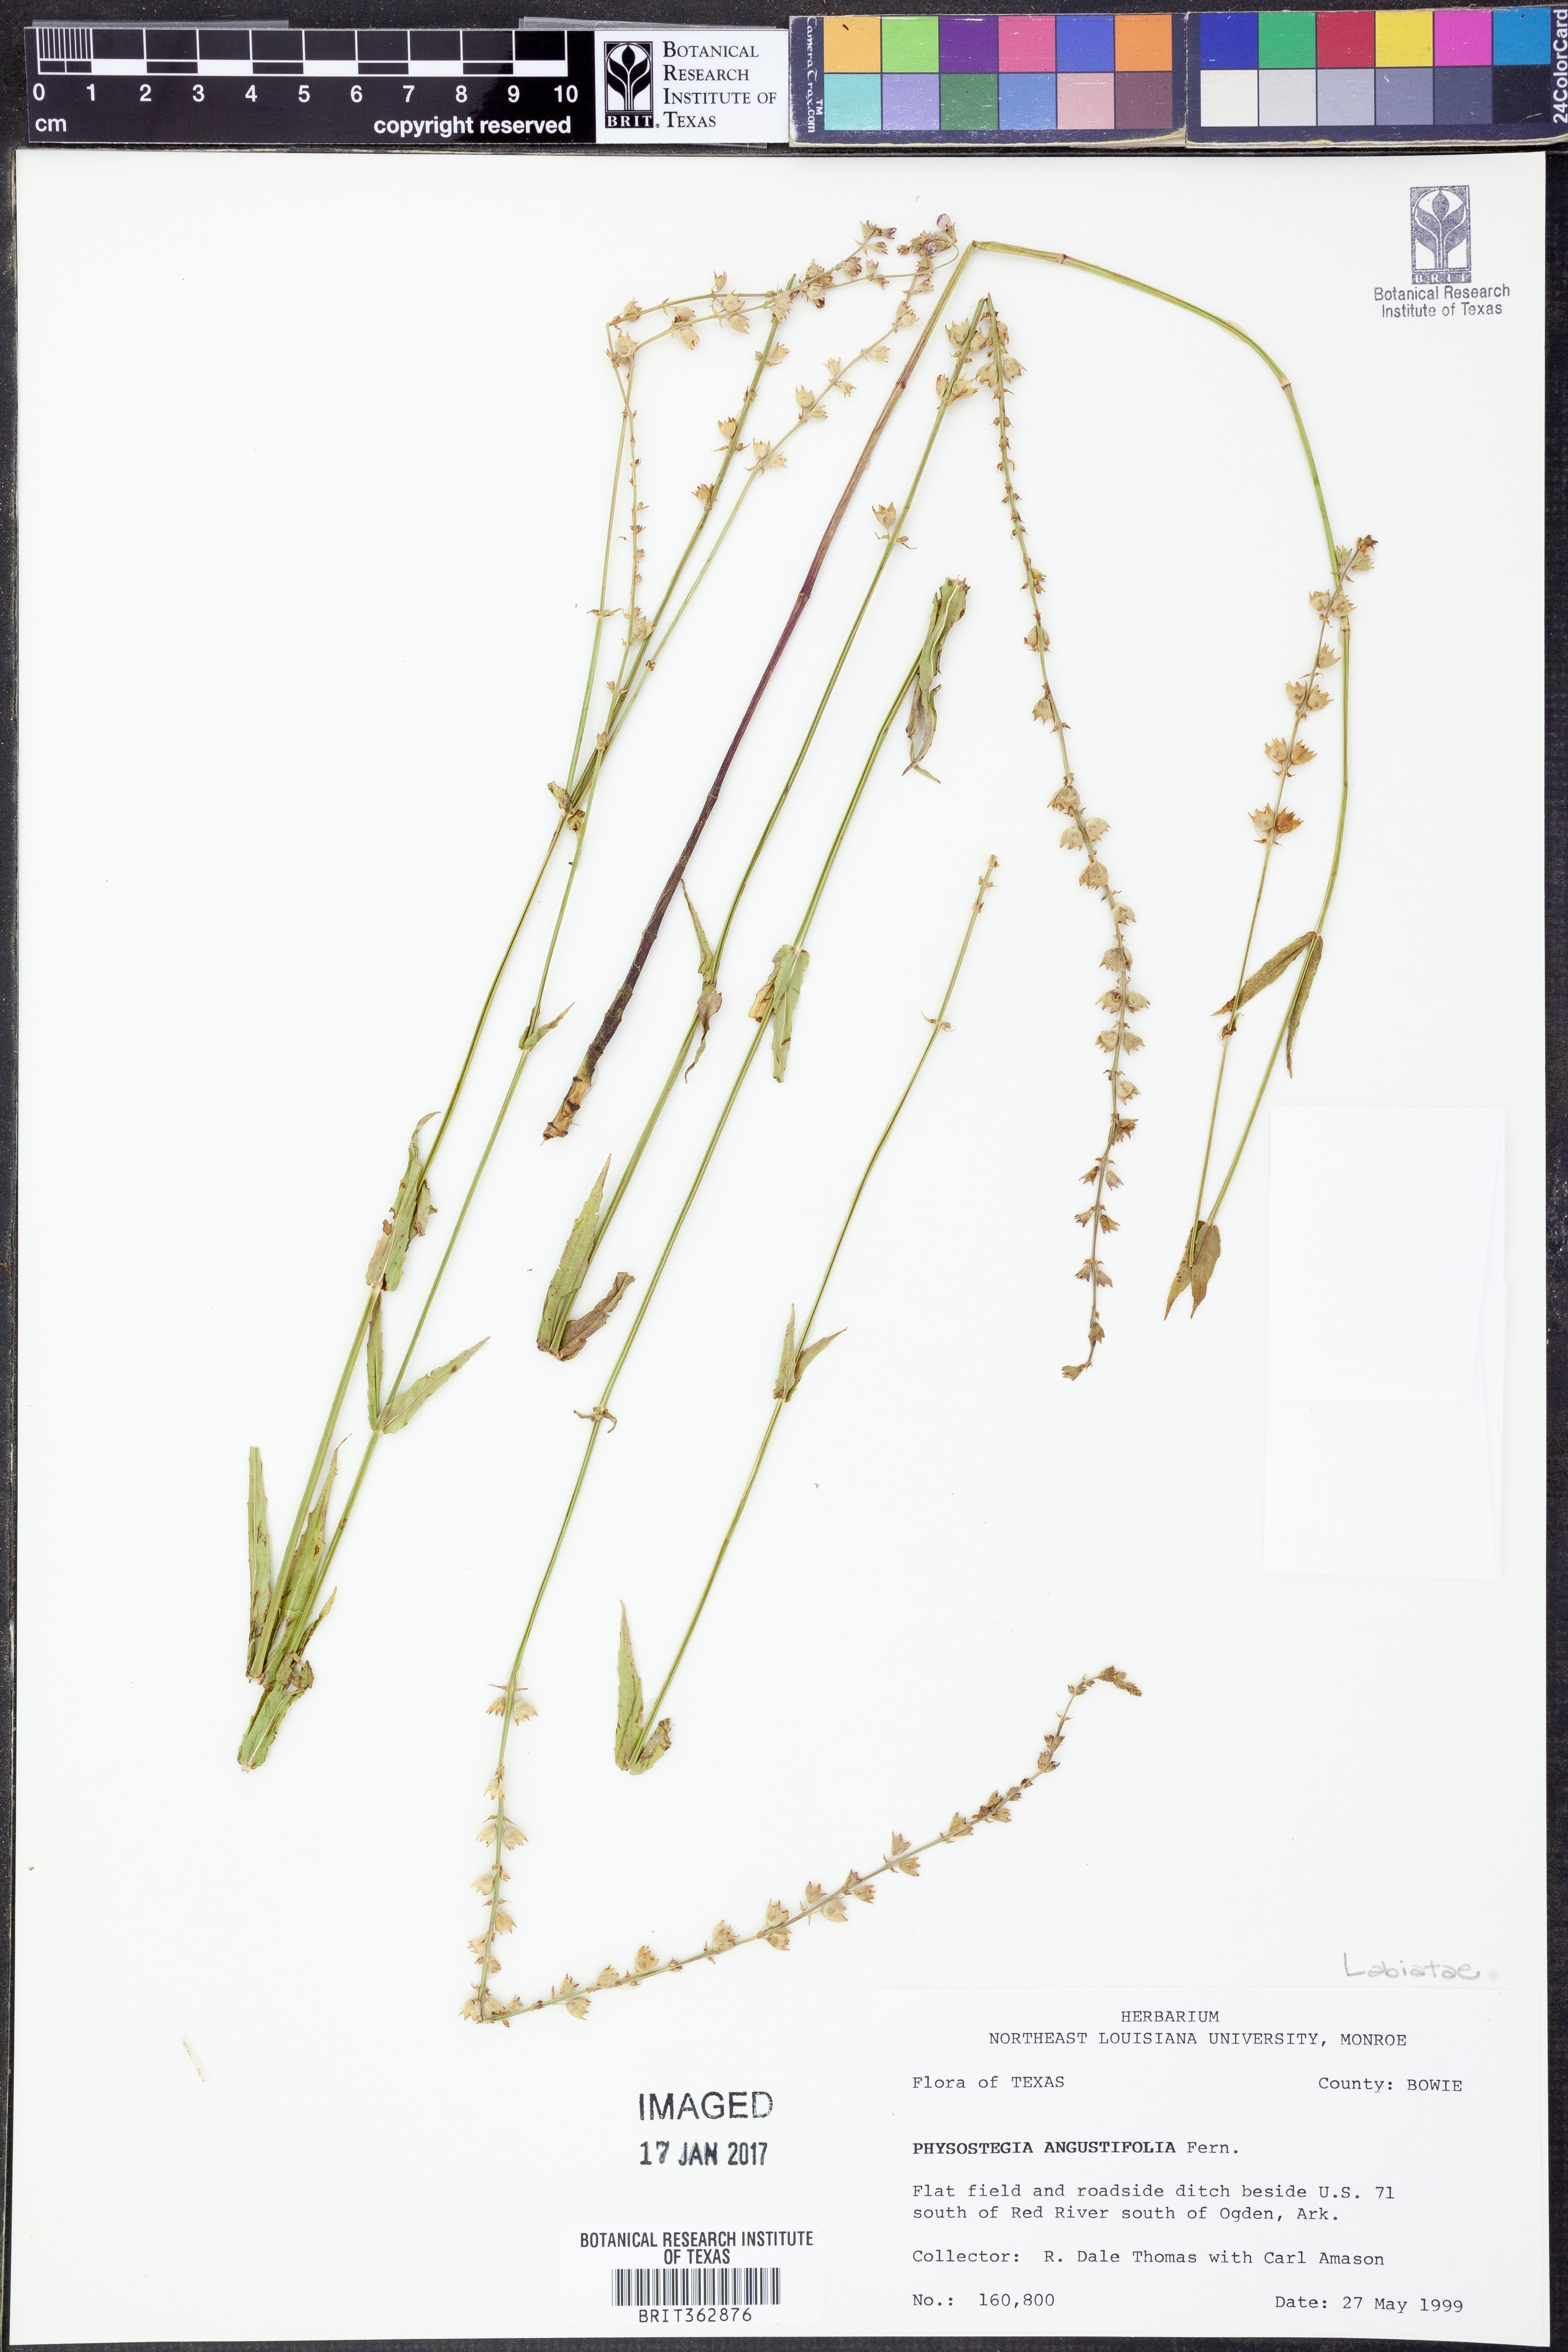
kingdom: Plantae
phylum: Tracheophyta
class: Magnoliopsida
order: Lamiales
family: Lamiaceae
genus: Physostegia
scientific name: Physostegia angustifolia
